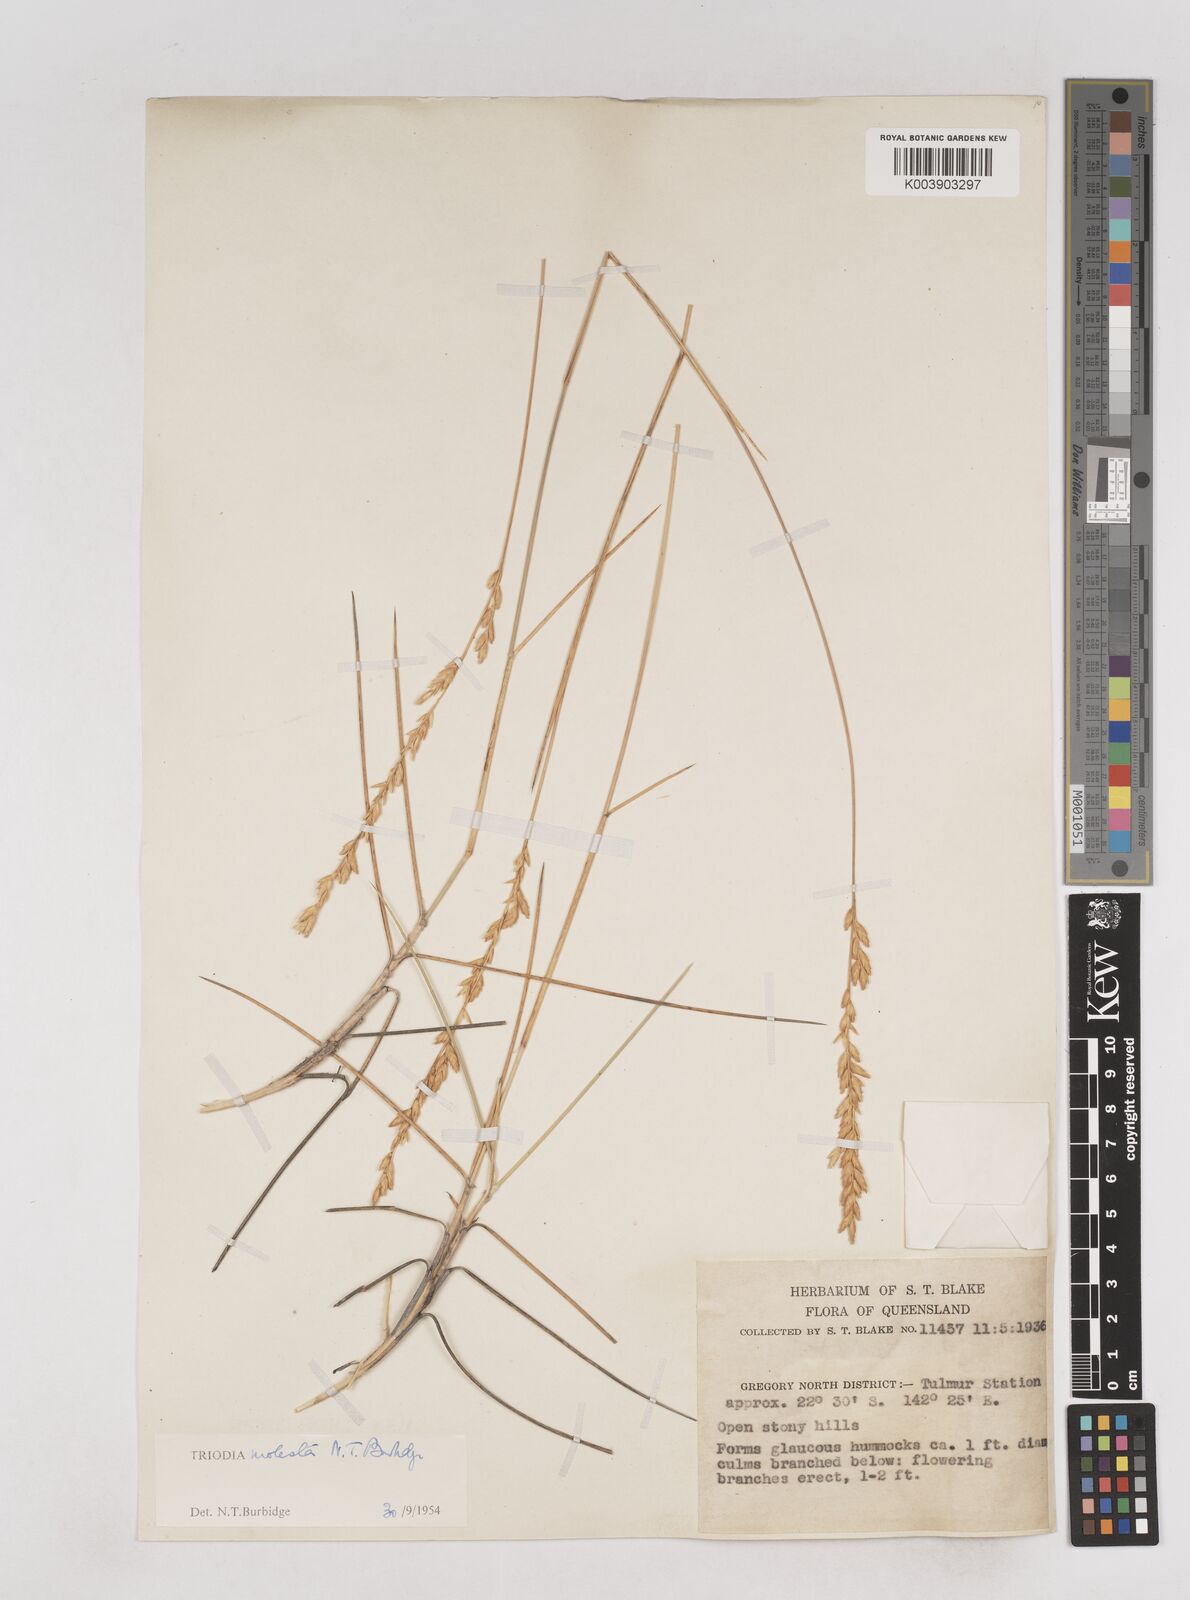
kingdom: Plantae
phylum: Tracheophyta
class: Liliopsida
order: Poales
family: Poaceae
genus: Triodia
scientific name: Triodia molesta
